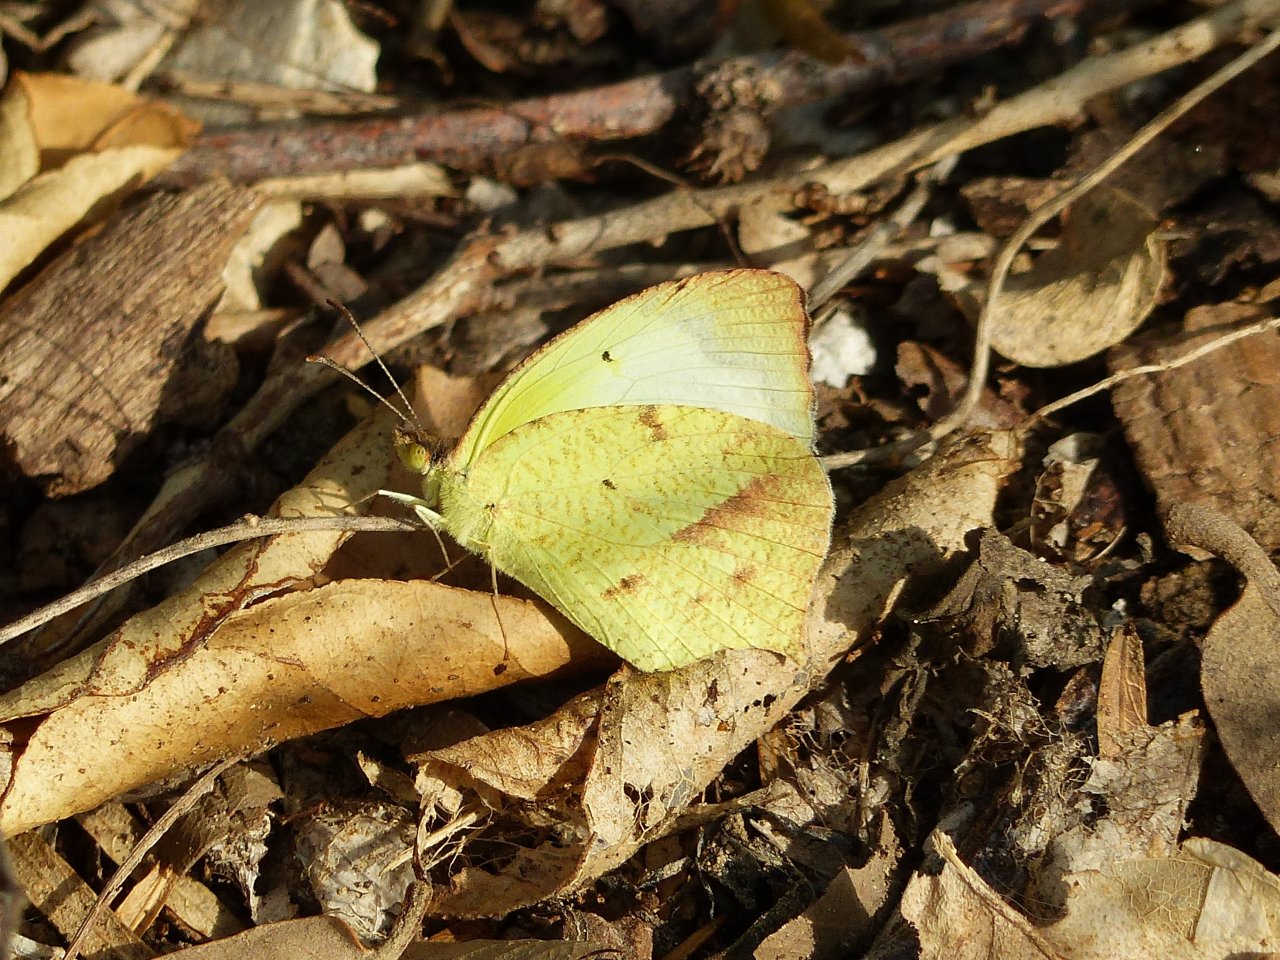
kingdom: Animalia
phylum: Arthropoda
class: Insecta
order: Lepidoptera
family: Pieridae
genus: Eurema
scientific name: Eurema mexicana
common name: Mexican Yellow
